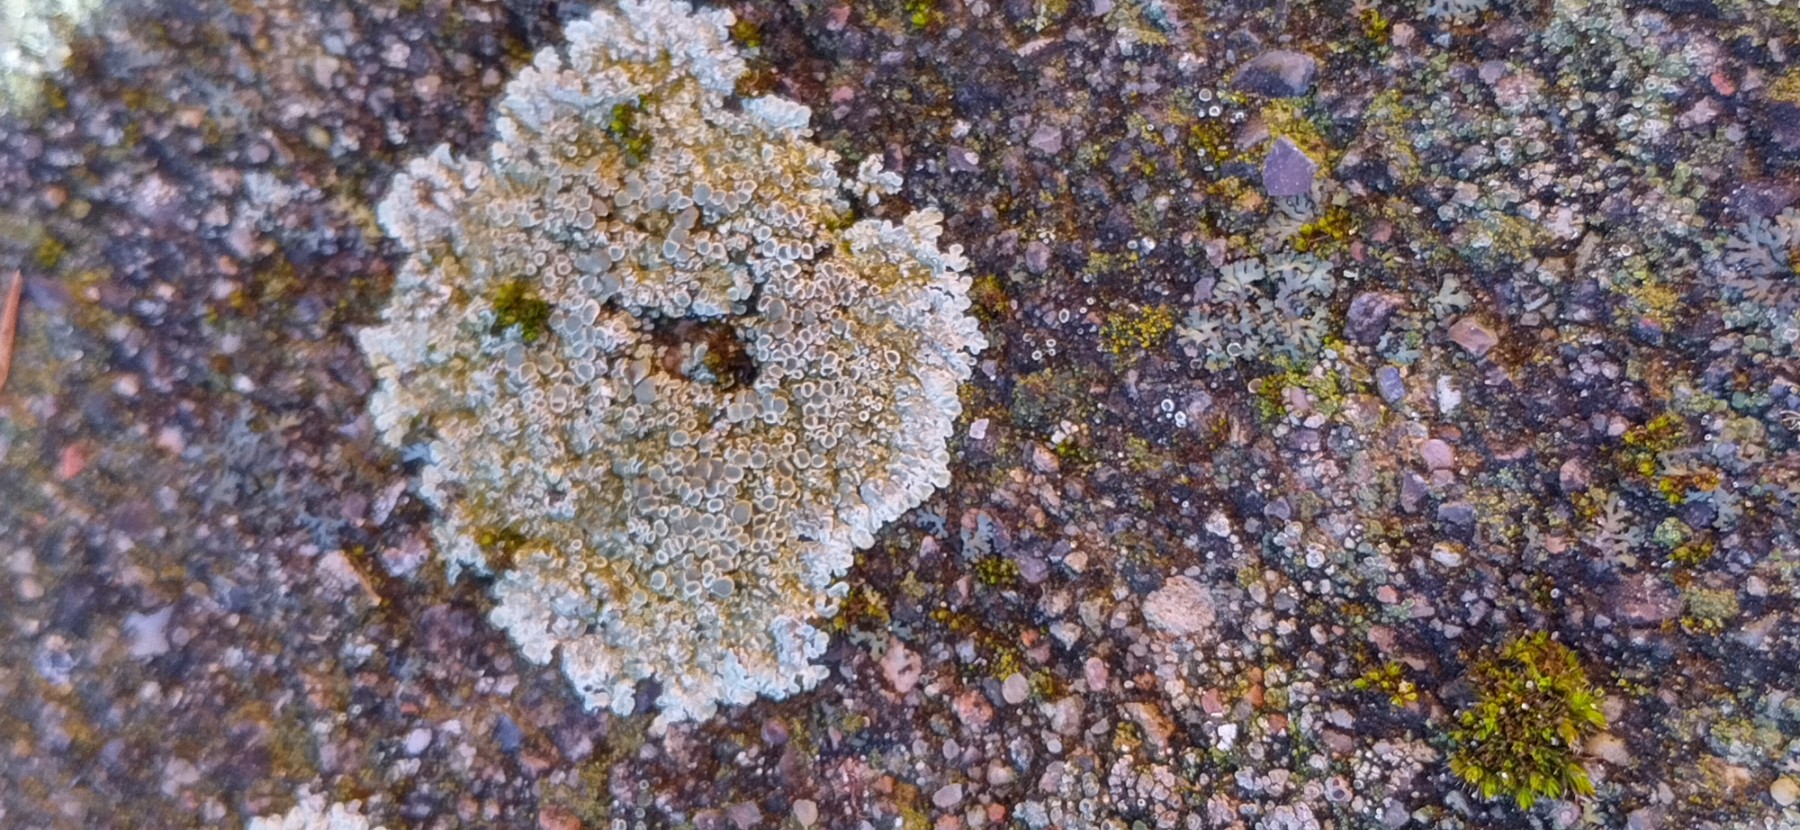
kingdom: Fungi
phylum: Ascomycota
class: Lecanoromycetes
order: Lecanorales
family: Lecanoraceae
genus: Protoparmeliopsis
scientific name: Protoparmeliopsis muralis
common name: randfliget kantskivelav
